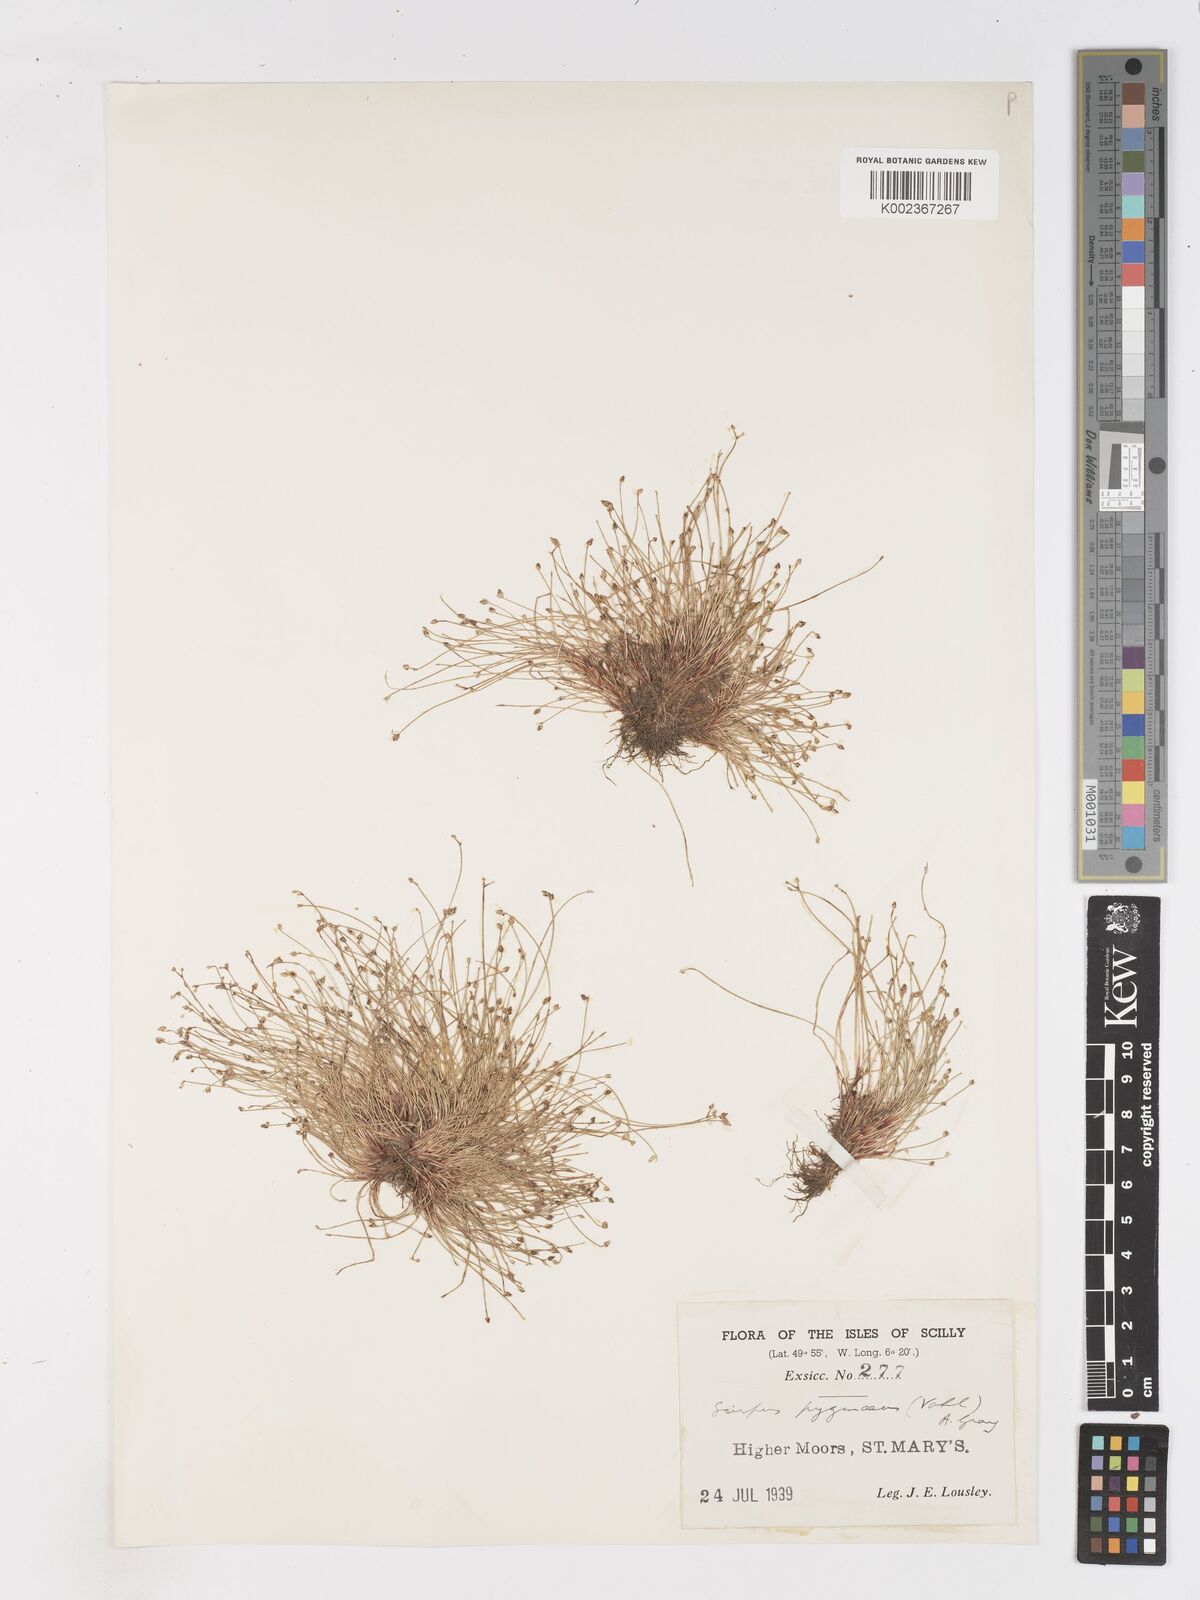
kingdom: Plantae
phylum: Tracheophyta
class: Liliopsida
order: Poales
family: Cyperaceae
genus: Isolepis
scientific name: Isolepis cernua
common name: Slender club-rush
